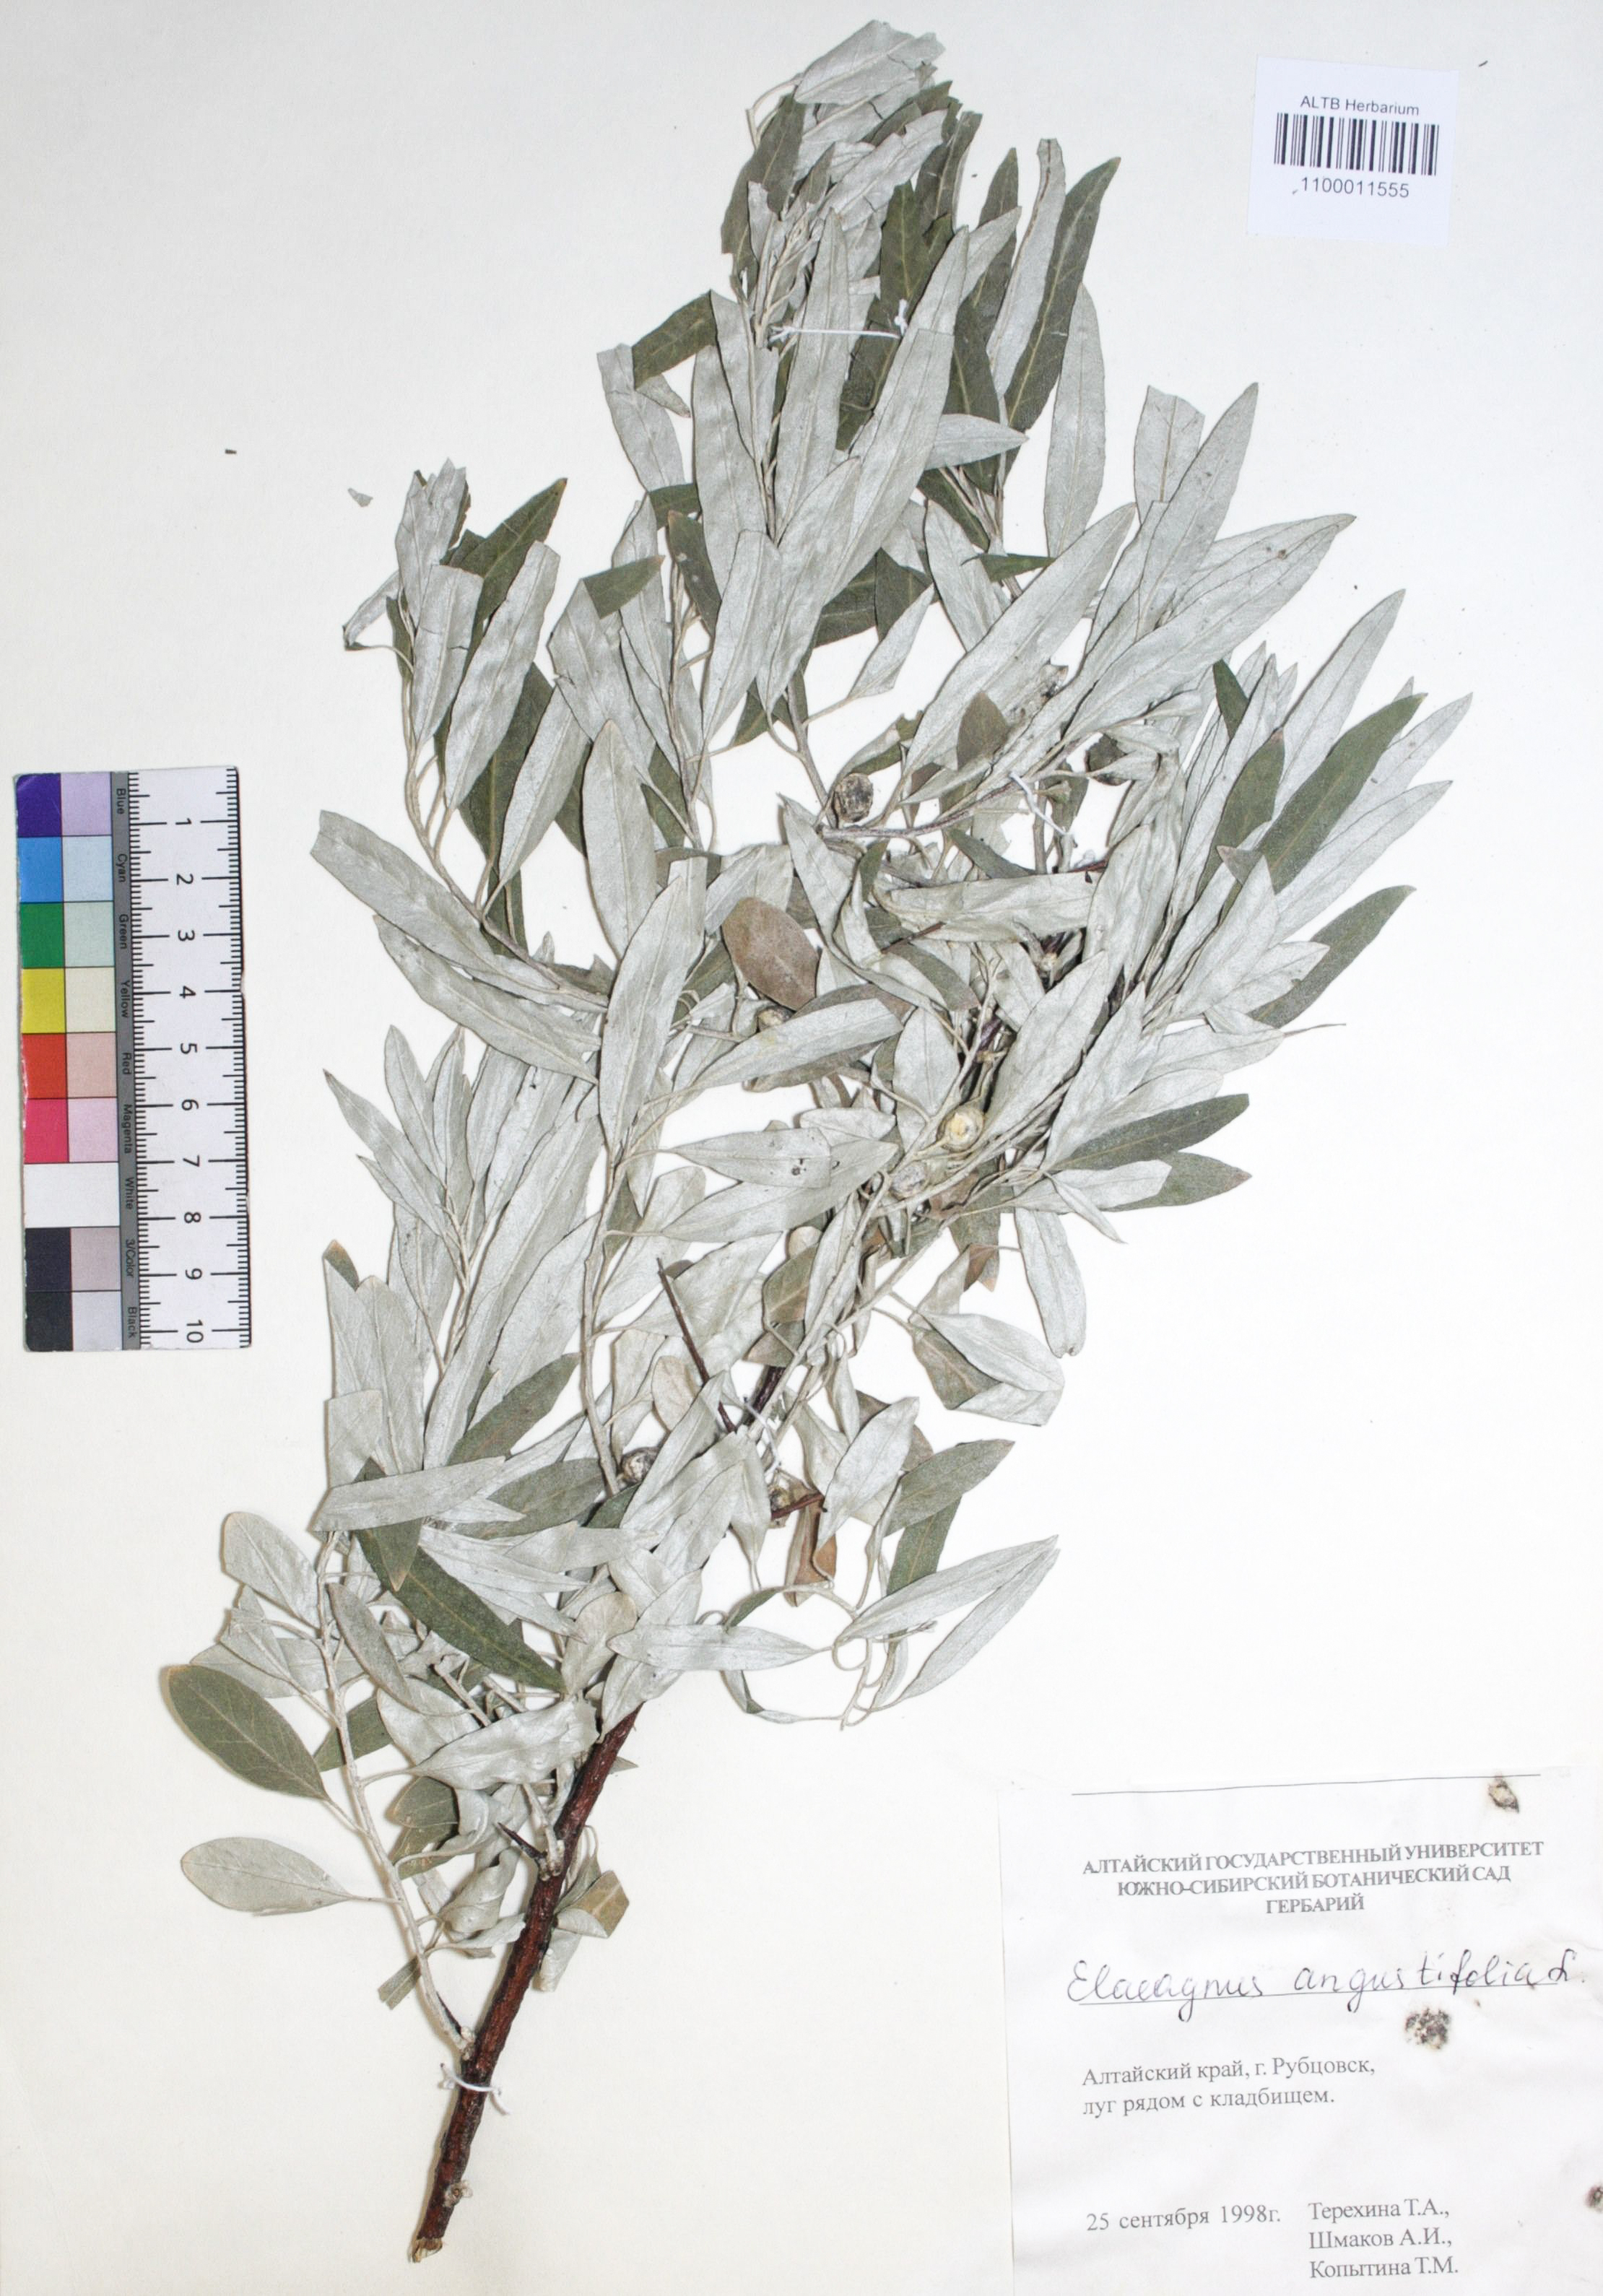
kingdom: Plantae
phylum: Tracheophyta
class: Magnoliopsida
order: Rosales
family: Elaeagnaceae
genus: Elaeagnus
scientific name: Elaeagnus angustifolia
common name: Russian olive
